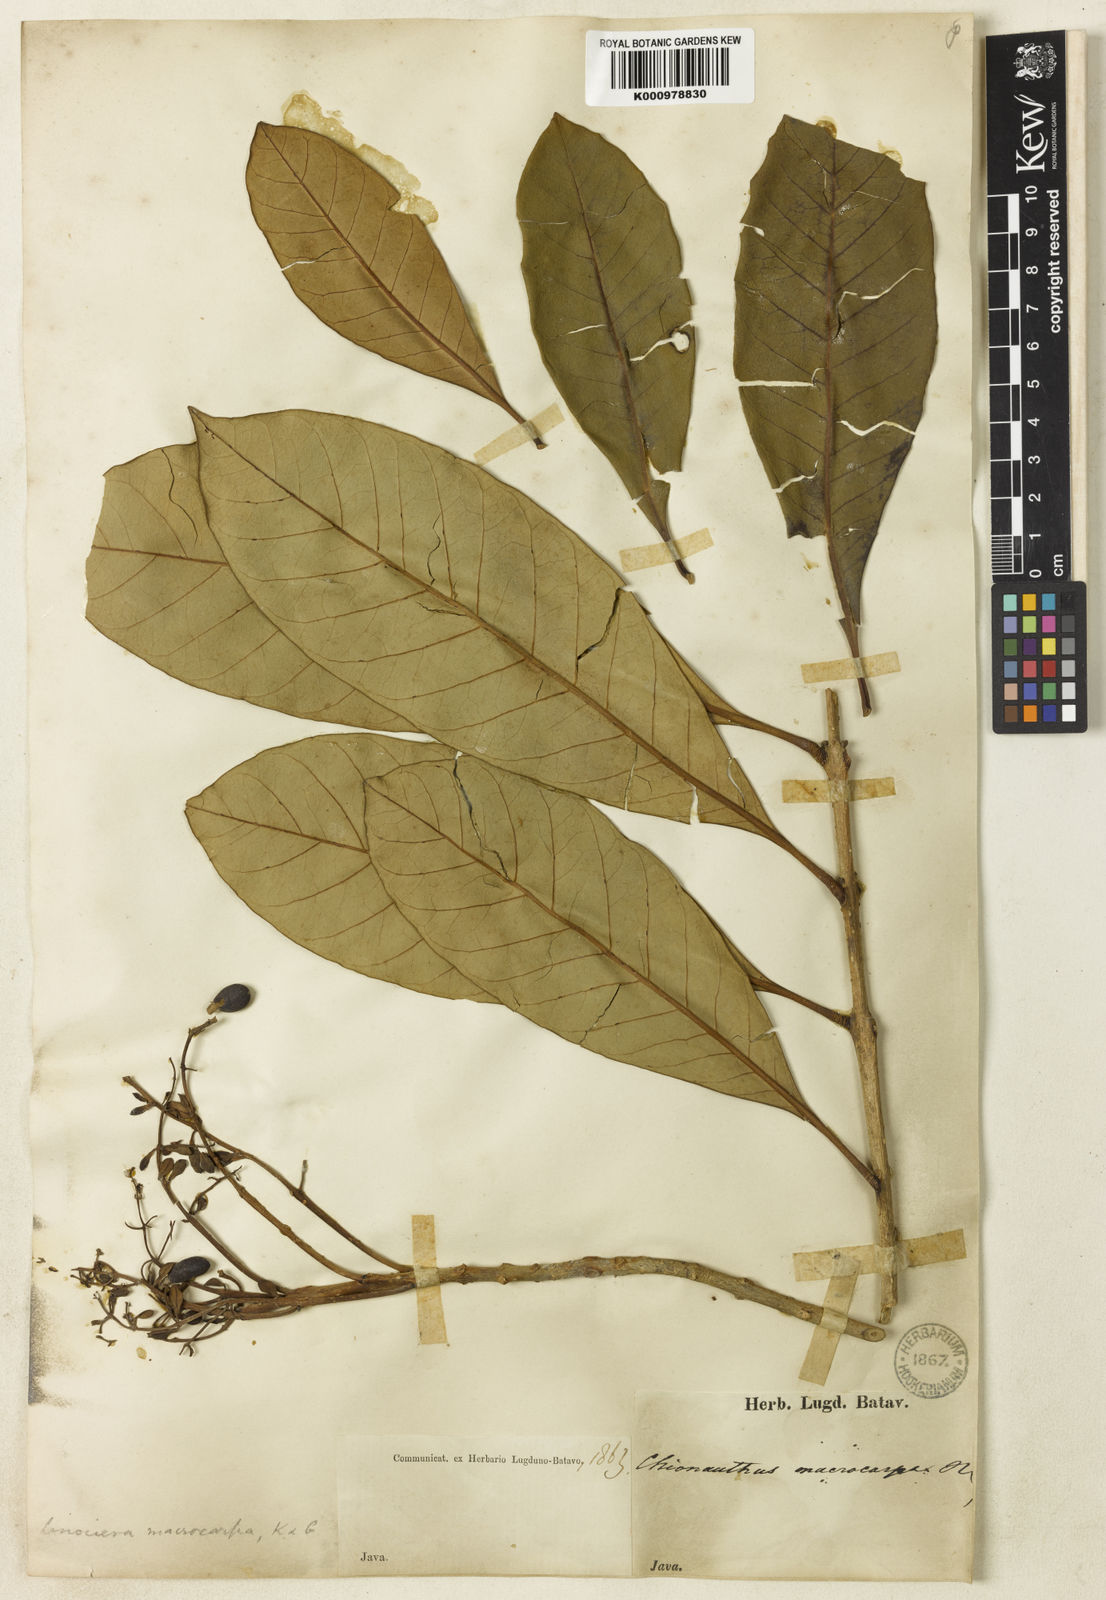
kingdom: Plantae
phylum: Tracheophyta
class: Magnoliopsida
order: Lamiales
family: Oleaceae
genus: Chionanthus
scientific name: Chionanthus macrocarpus
